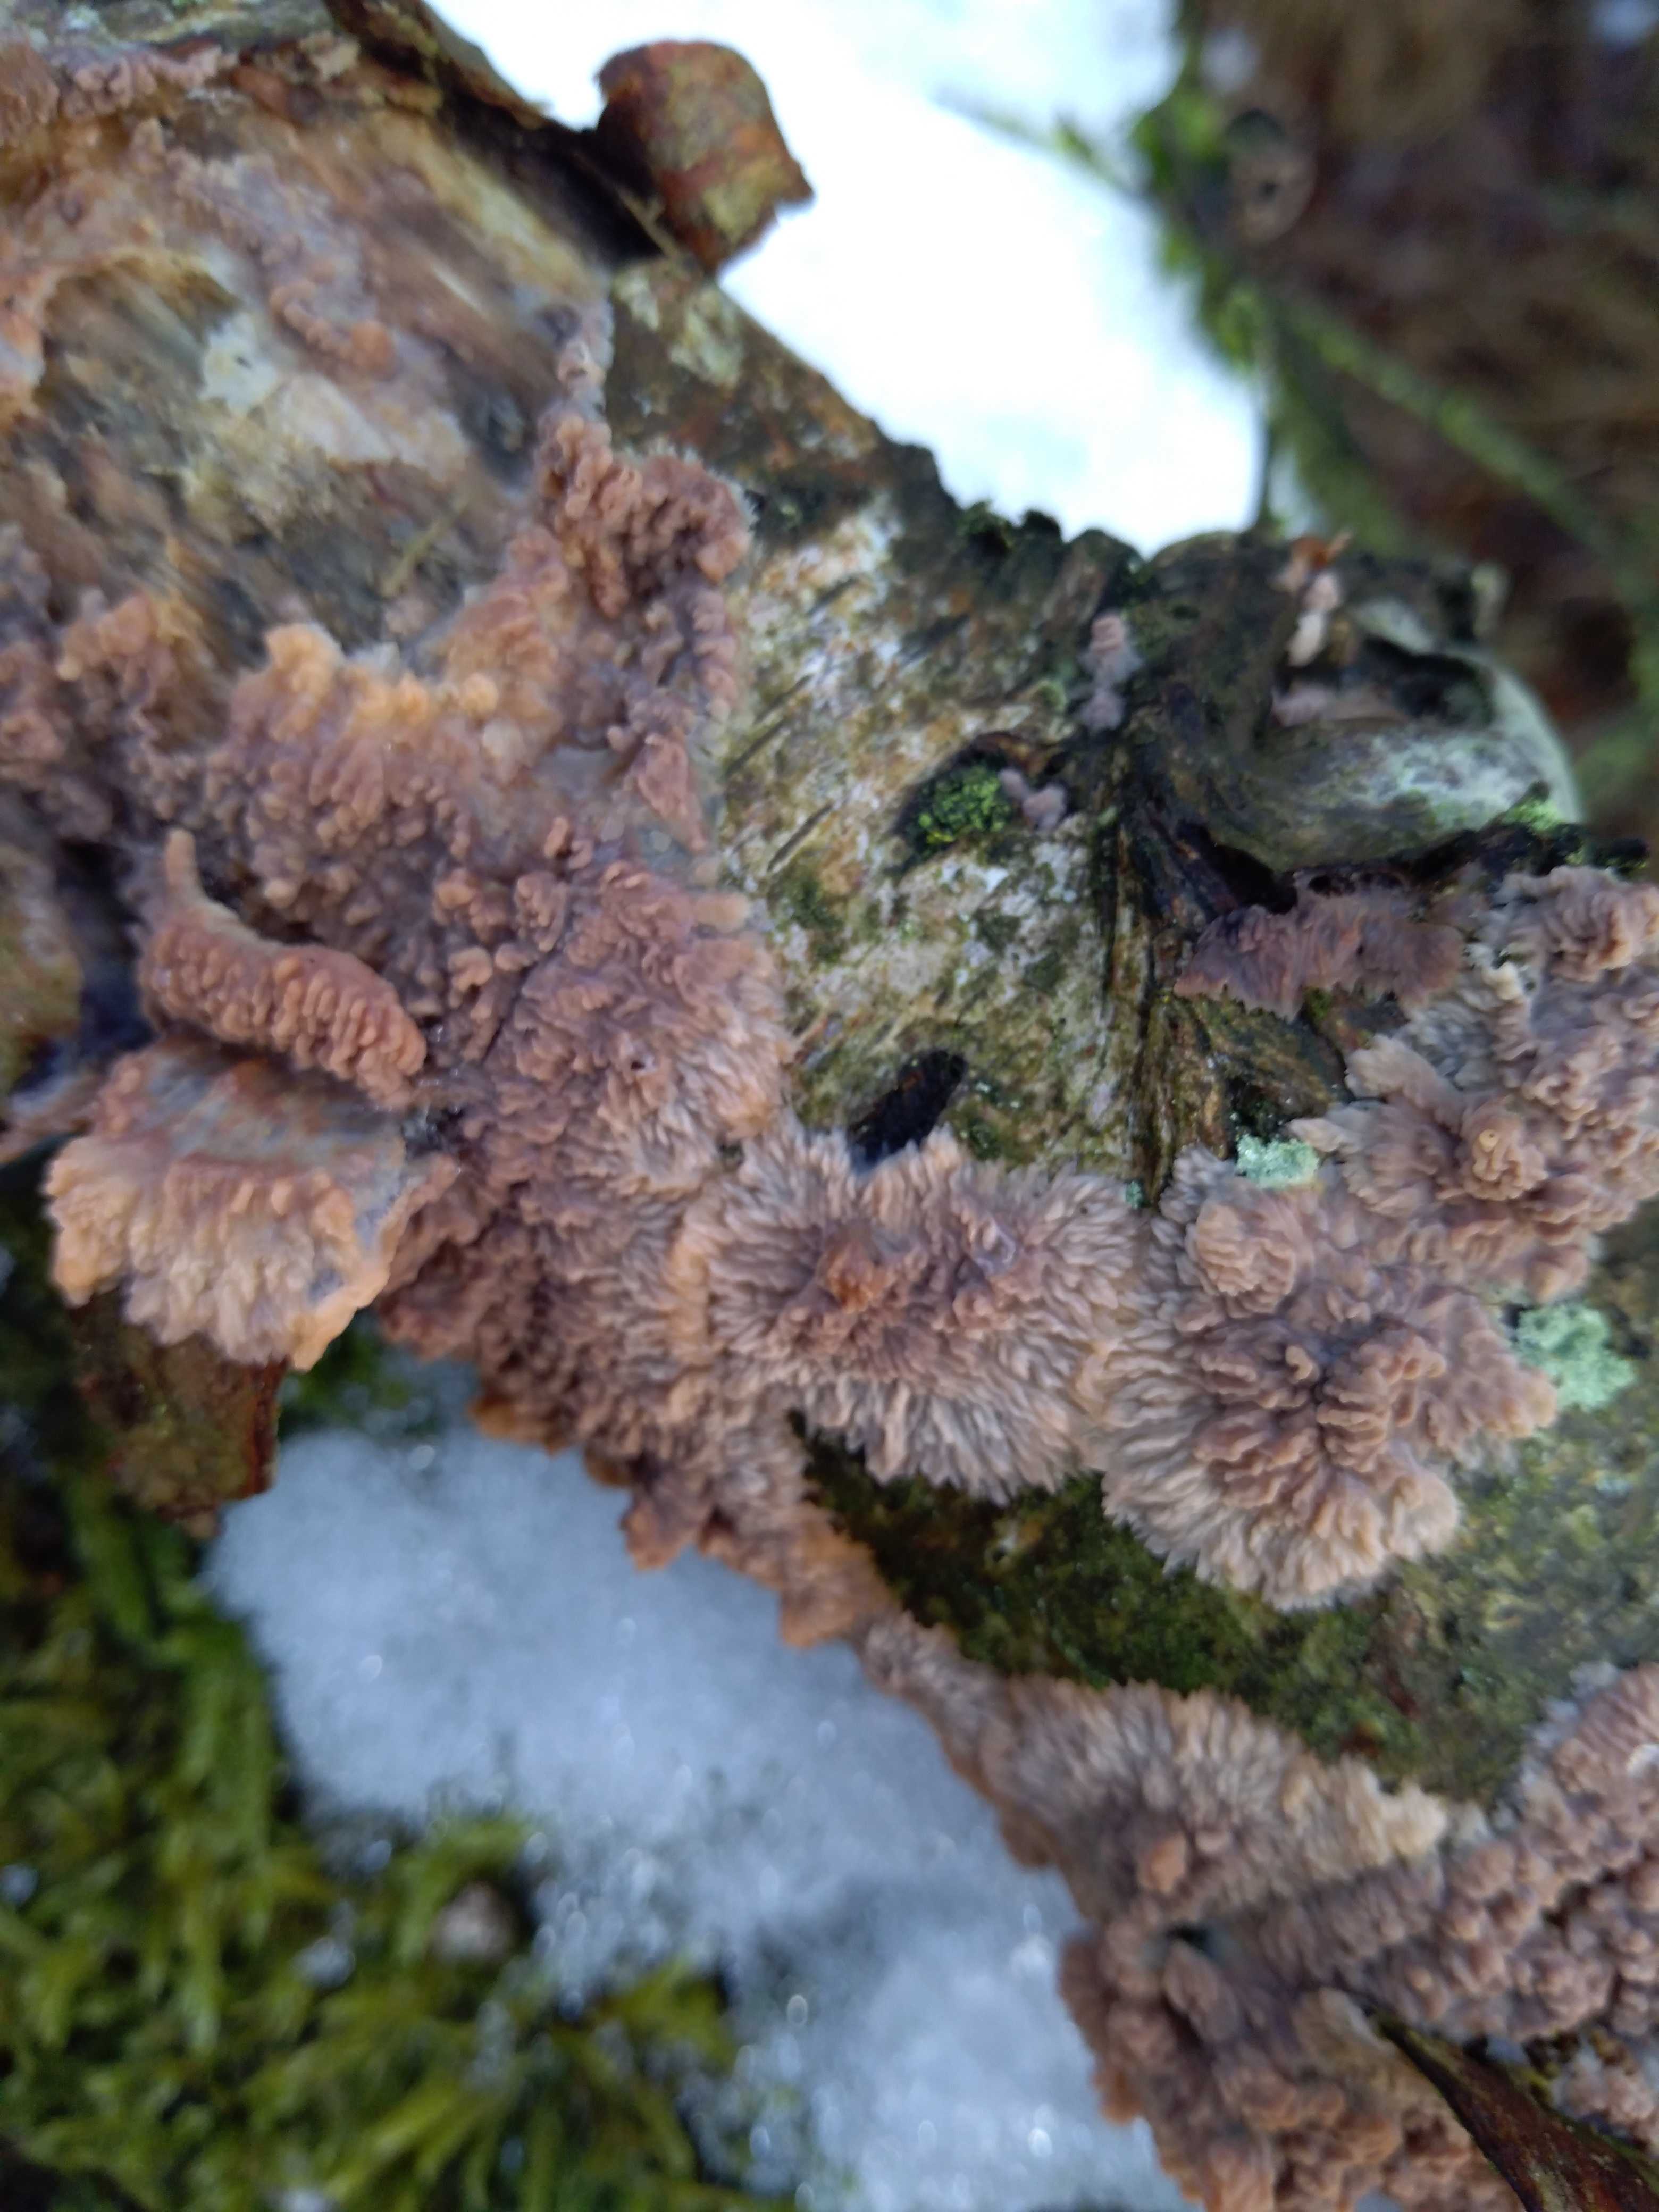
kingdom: Fungi
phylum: Basidiomycota
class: Agaricomycetes
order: Polyporales
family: Meruliaceae
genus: Phlebia
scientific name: Phlebia radiata
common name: stråle-åresvamp
